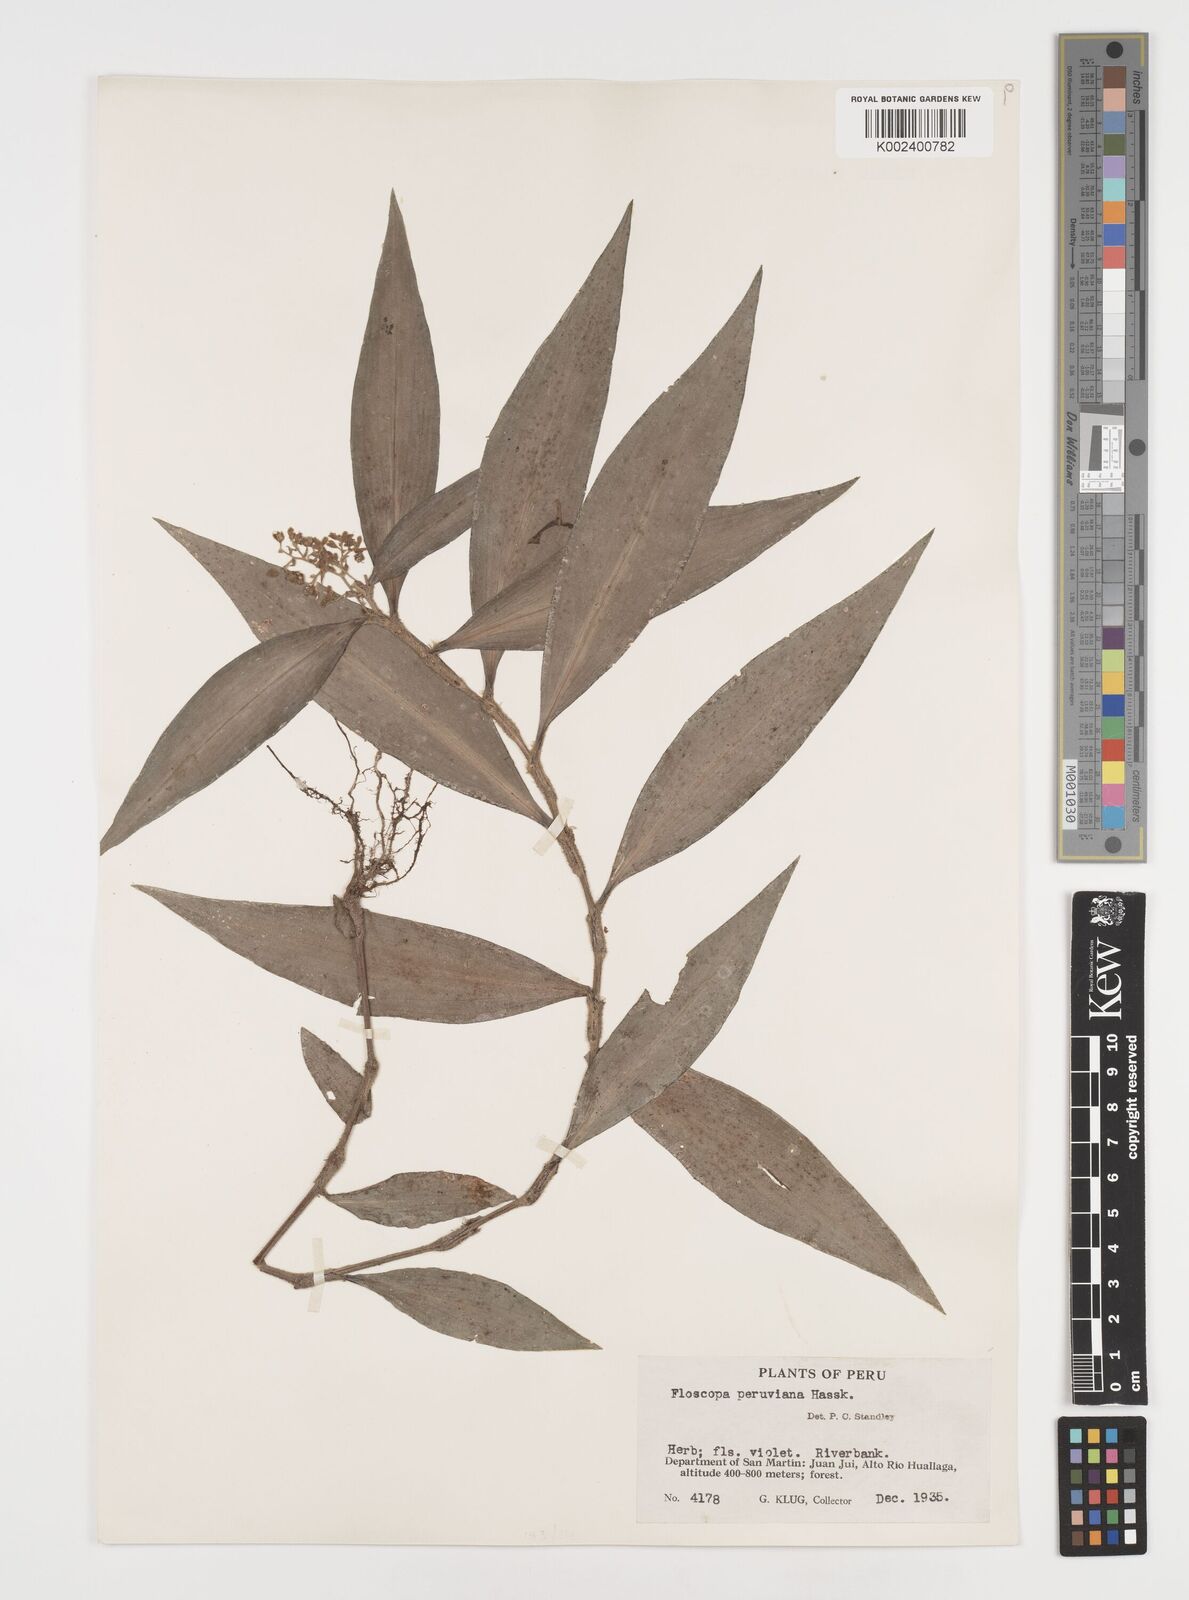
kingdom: Plantae
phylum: Tracheophyta
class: Liliopsida
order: Commelinales
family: Commelinaceae
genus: Floscopa
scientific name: Floscopa peruviana
